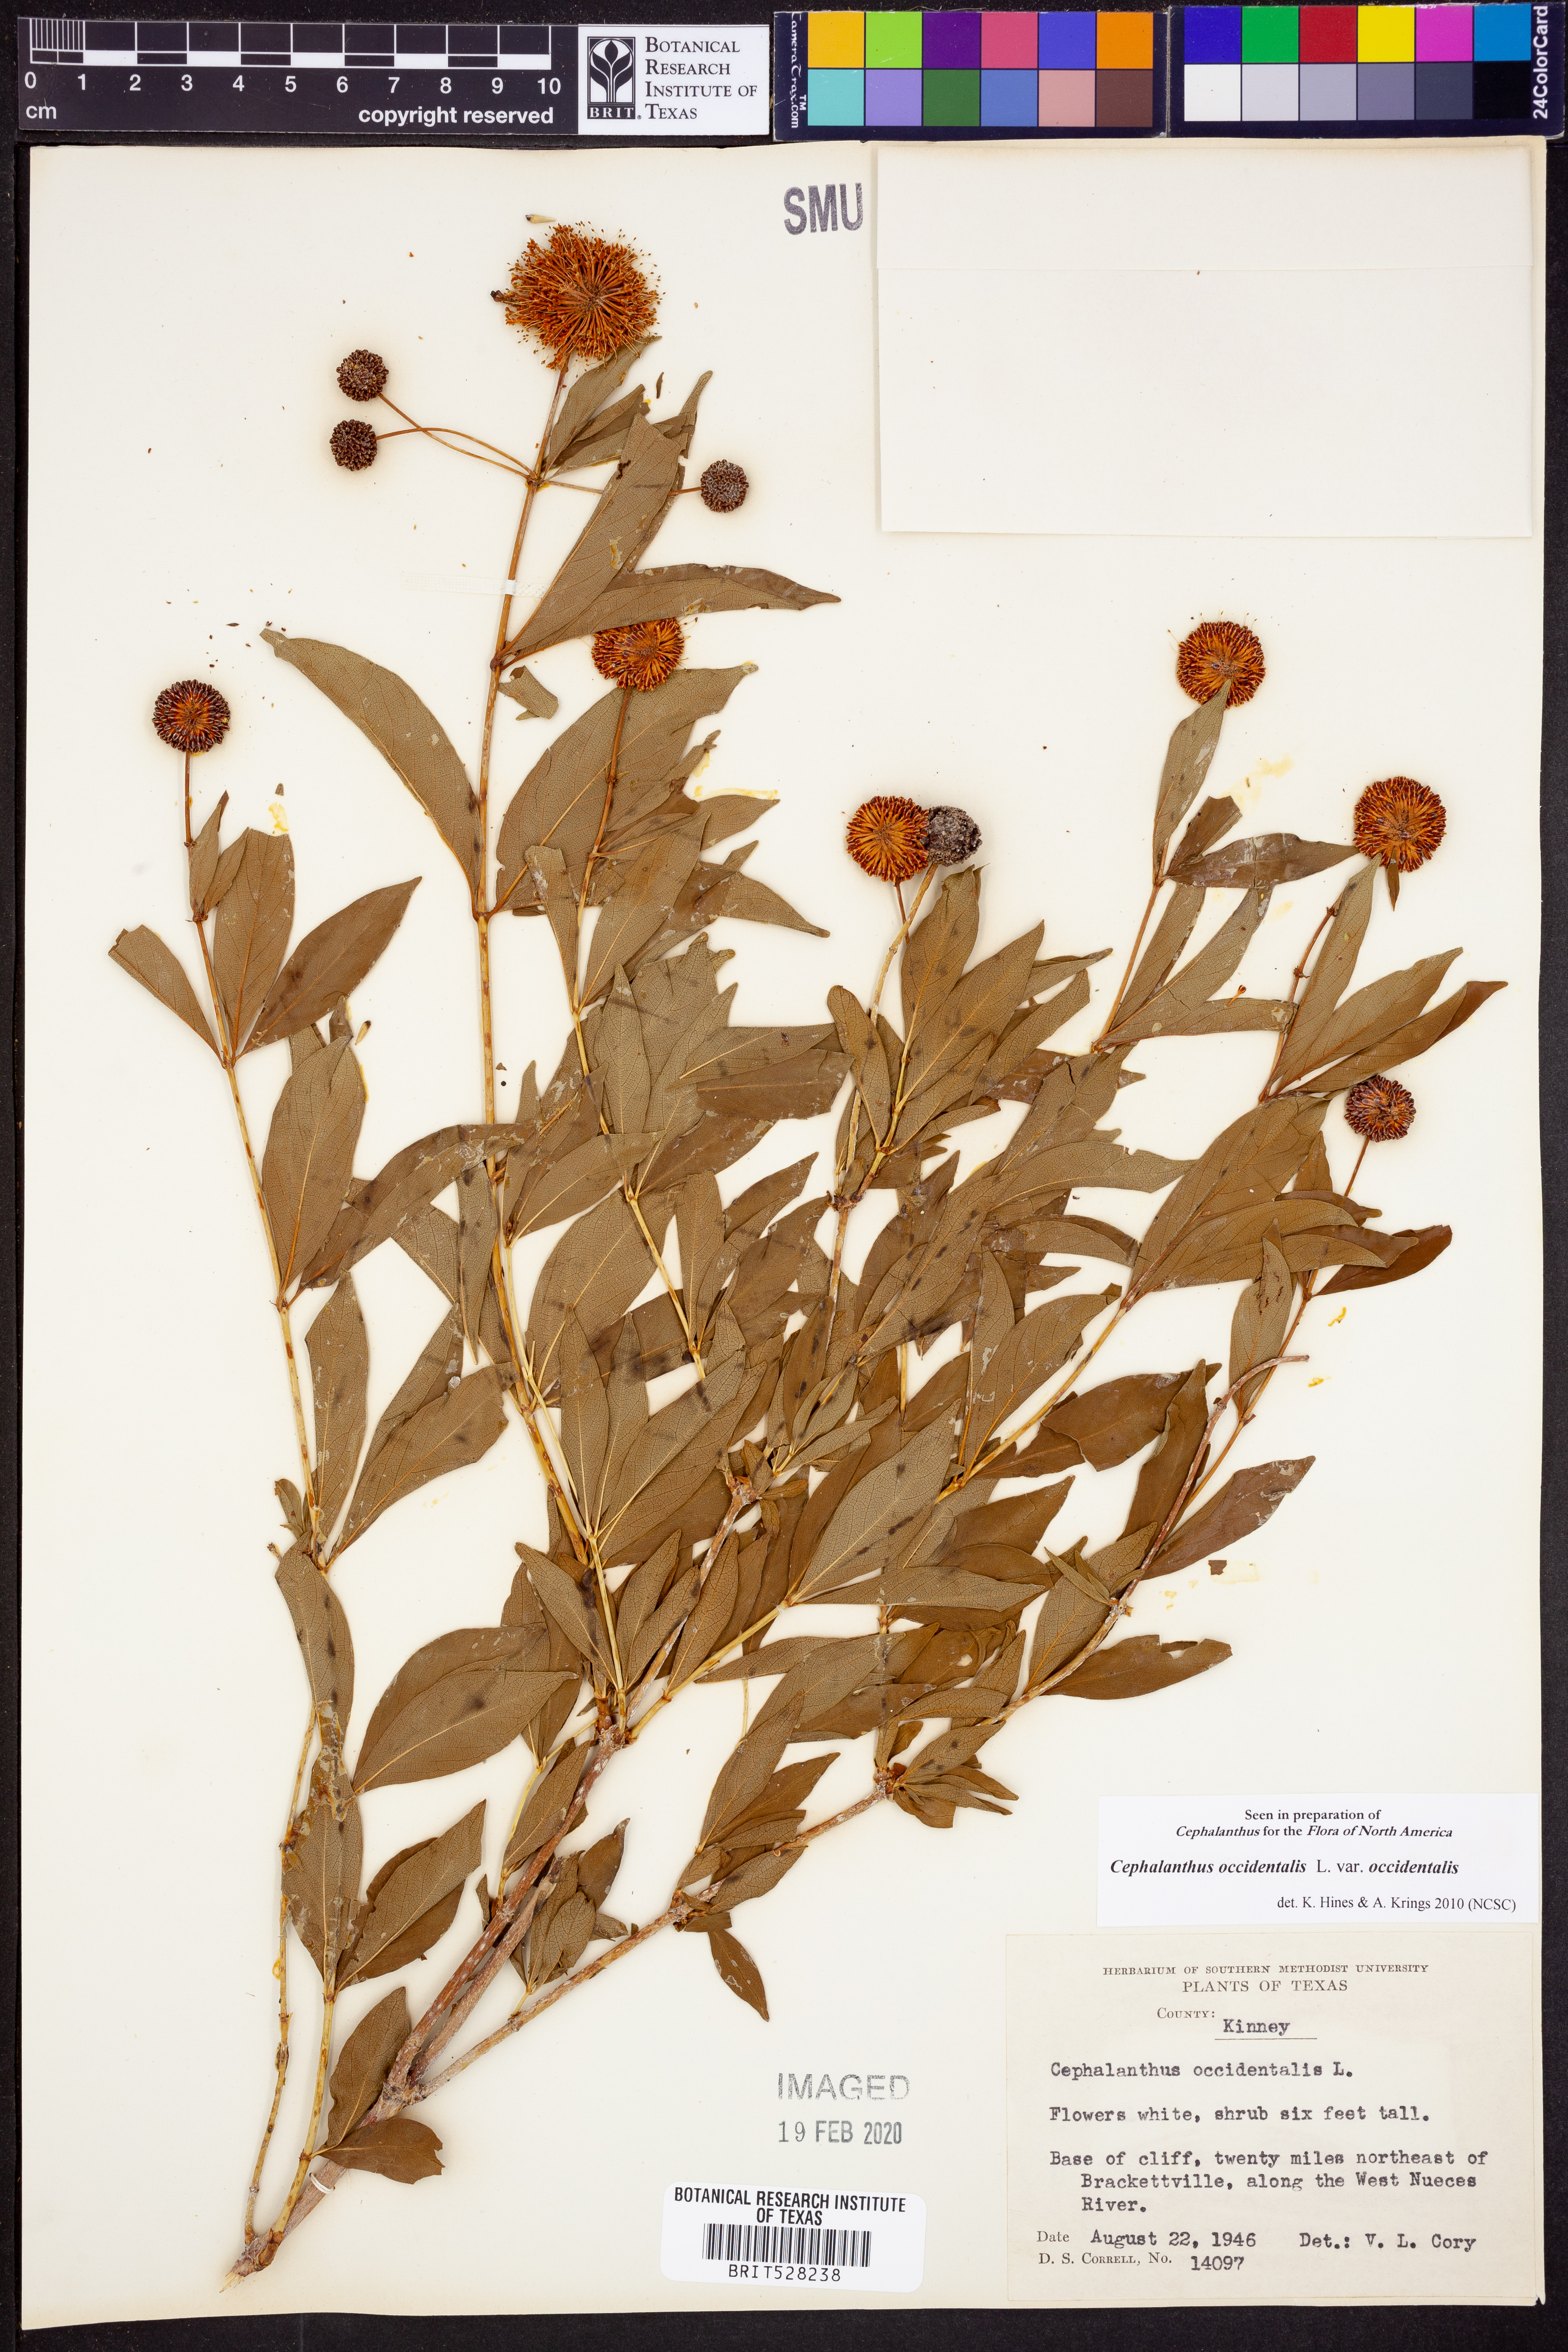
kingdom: Plantae
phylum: Tracheophyta
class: Magnoliopsida
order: Gentianales
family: Rubiaceae
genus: Cephalanthus
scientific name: Cephalanthus occidentalis
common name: Button-willow
